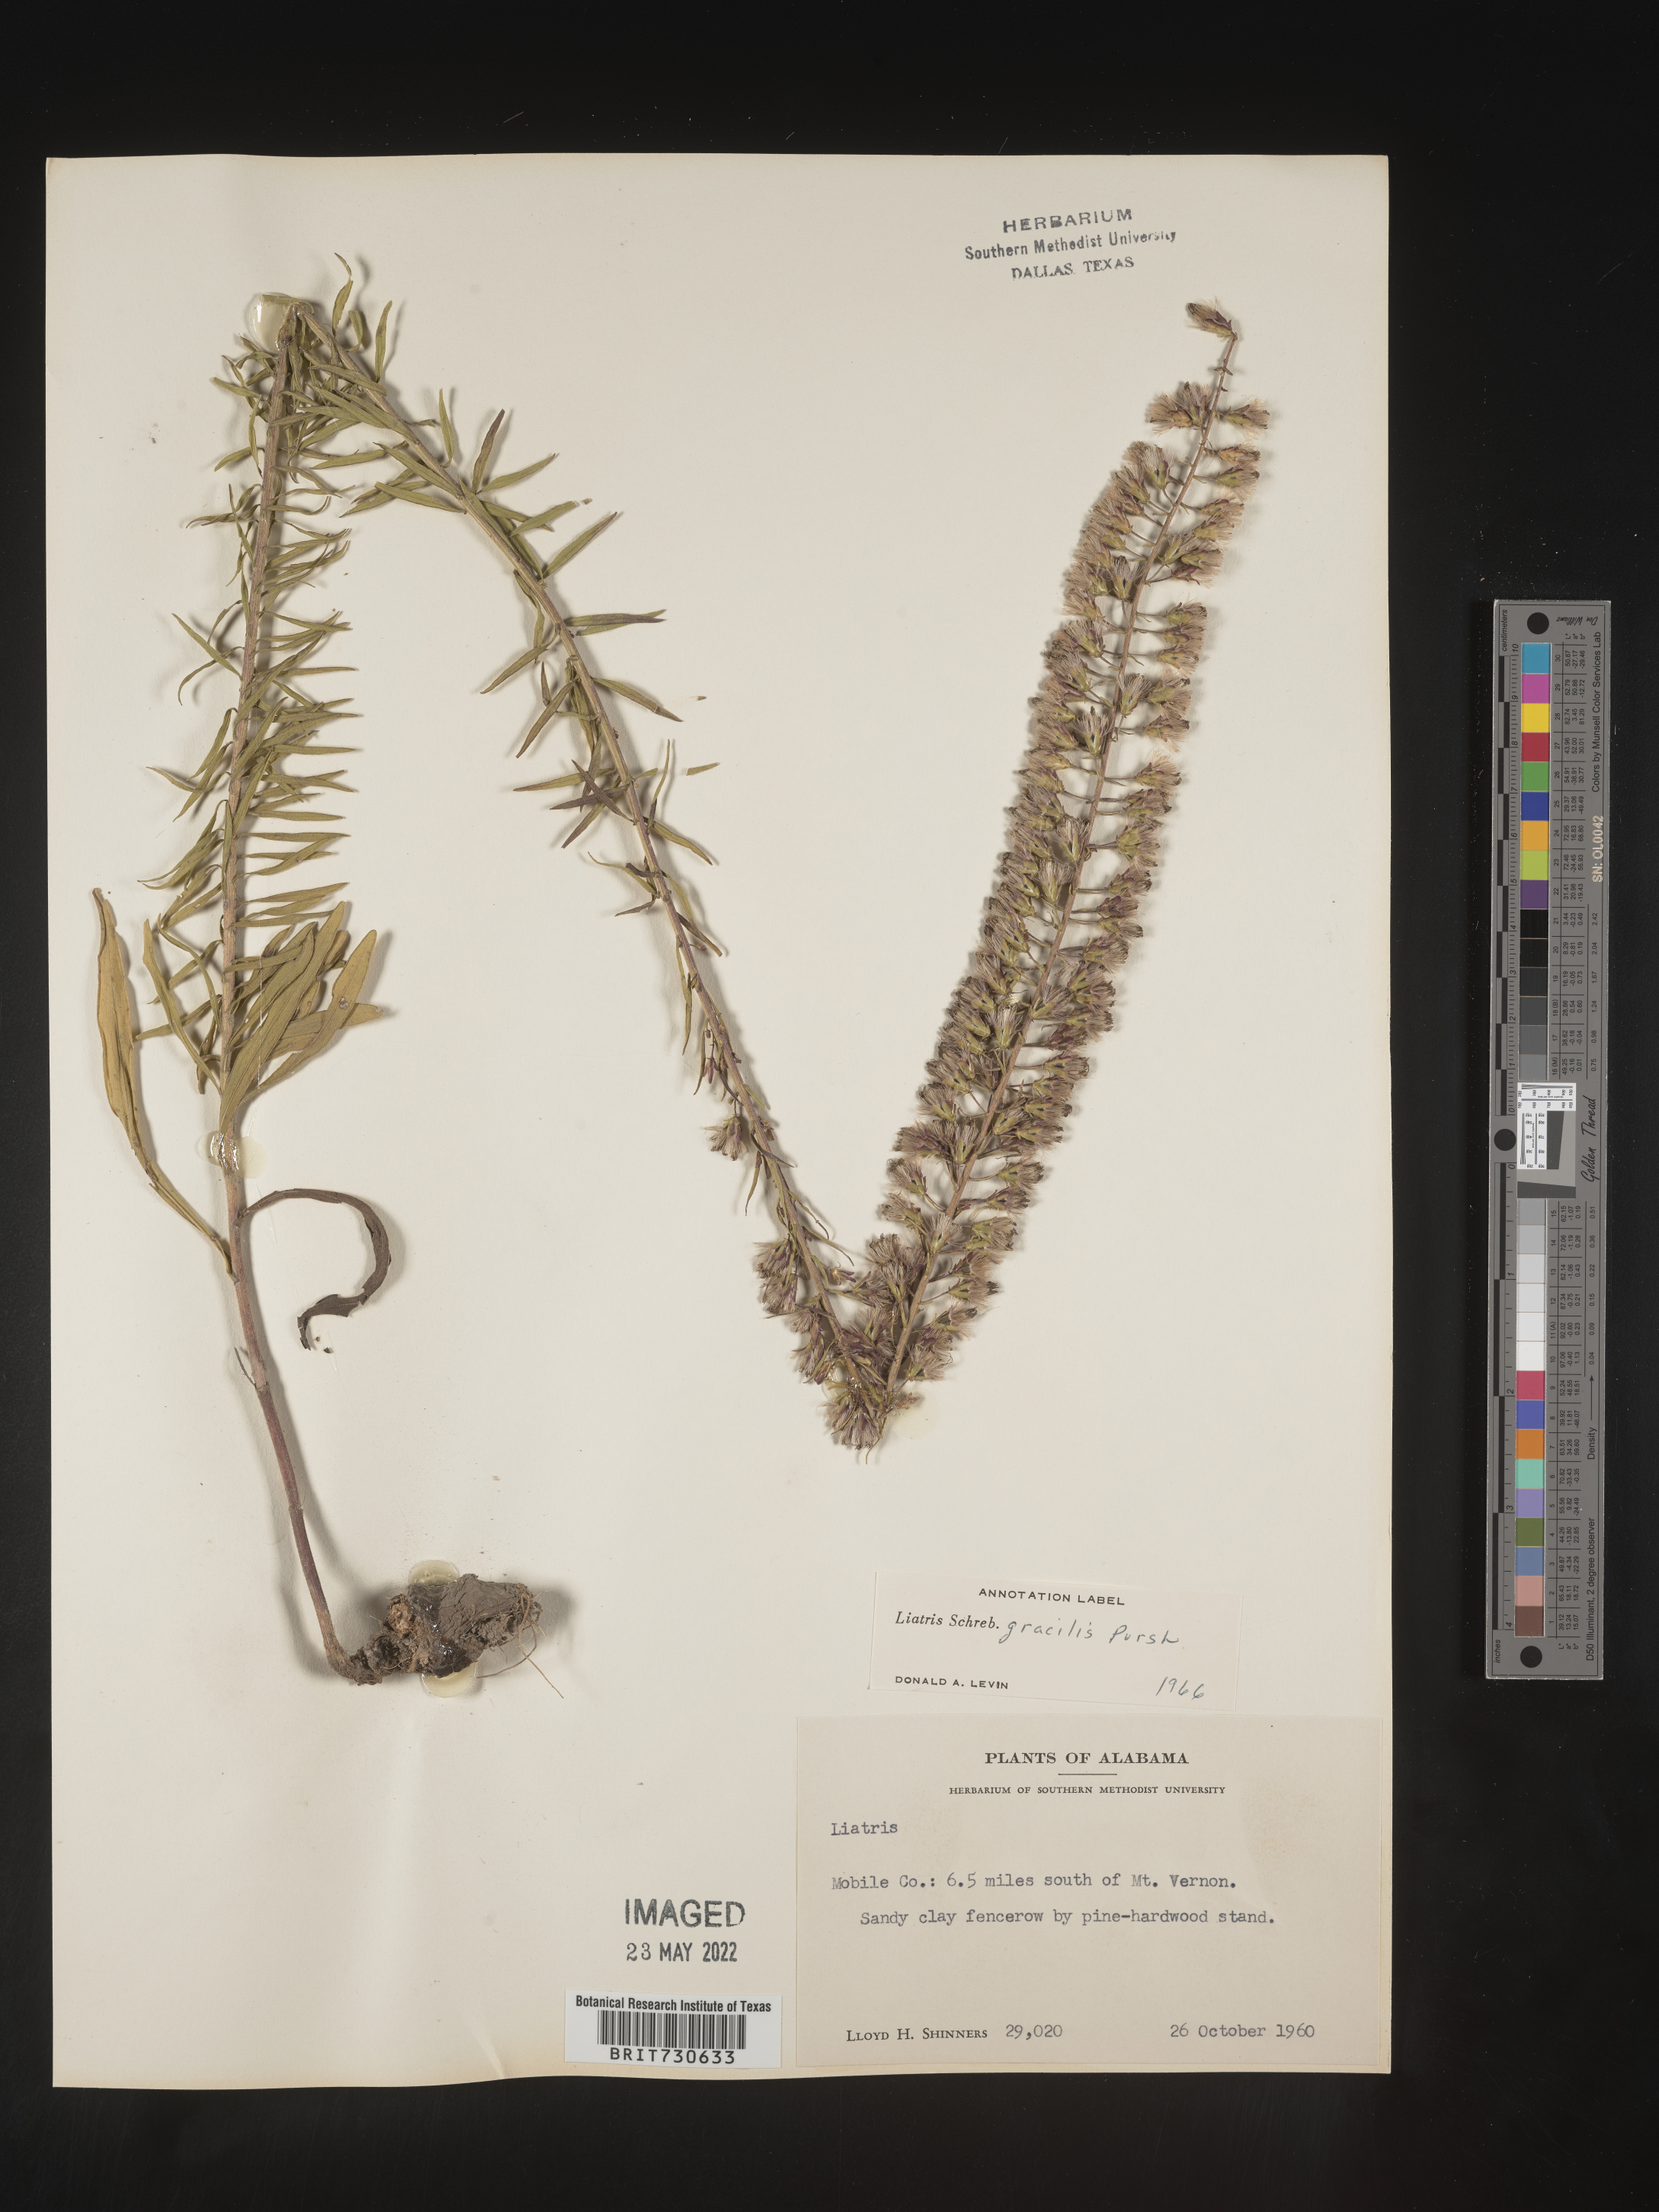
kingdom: Plantae
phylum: Tracheophyta
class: Magnoliopsida
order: Asterales
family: Asteraceae
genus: Liatris
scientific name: Liatris gracilis
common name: Slender gayfeather
